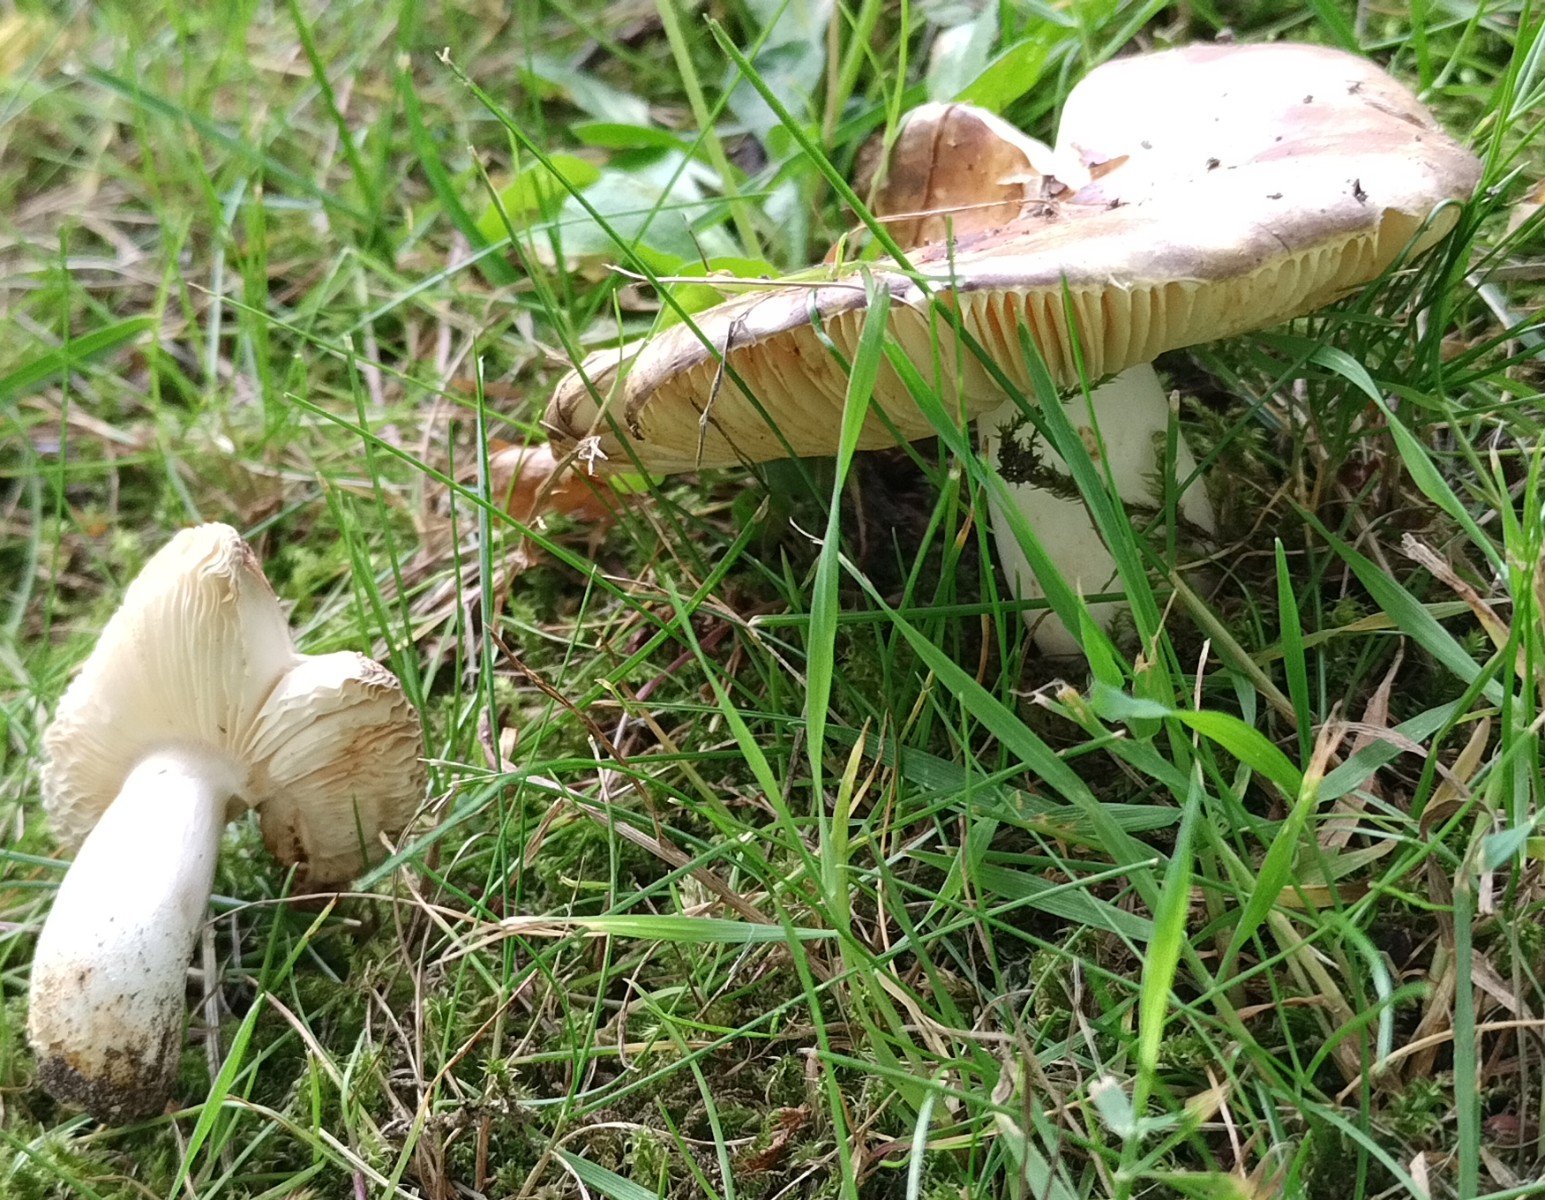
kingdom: Fungi
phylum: Basidiomycota
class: Agaricomycetes
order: Russulales
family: Russulaceae
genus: Russula
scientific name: Russula carpini
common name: avnbøg-skørhat
